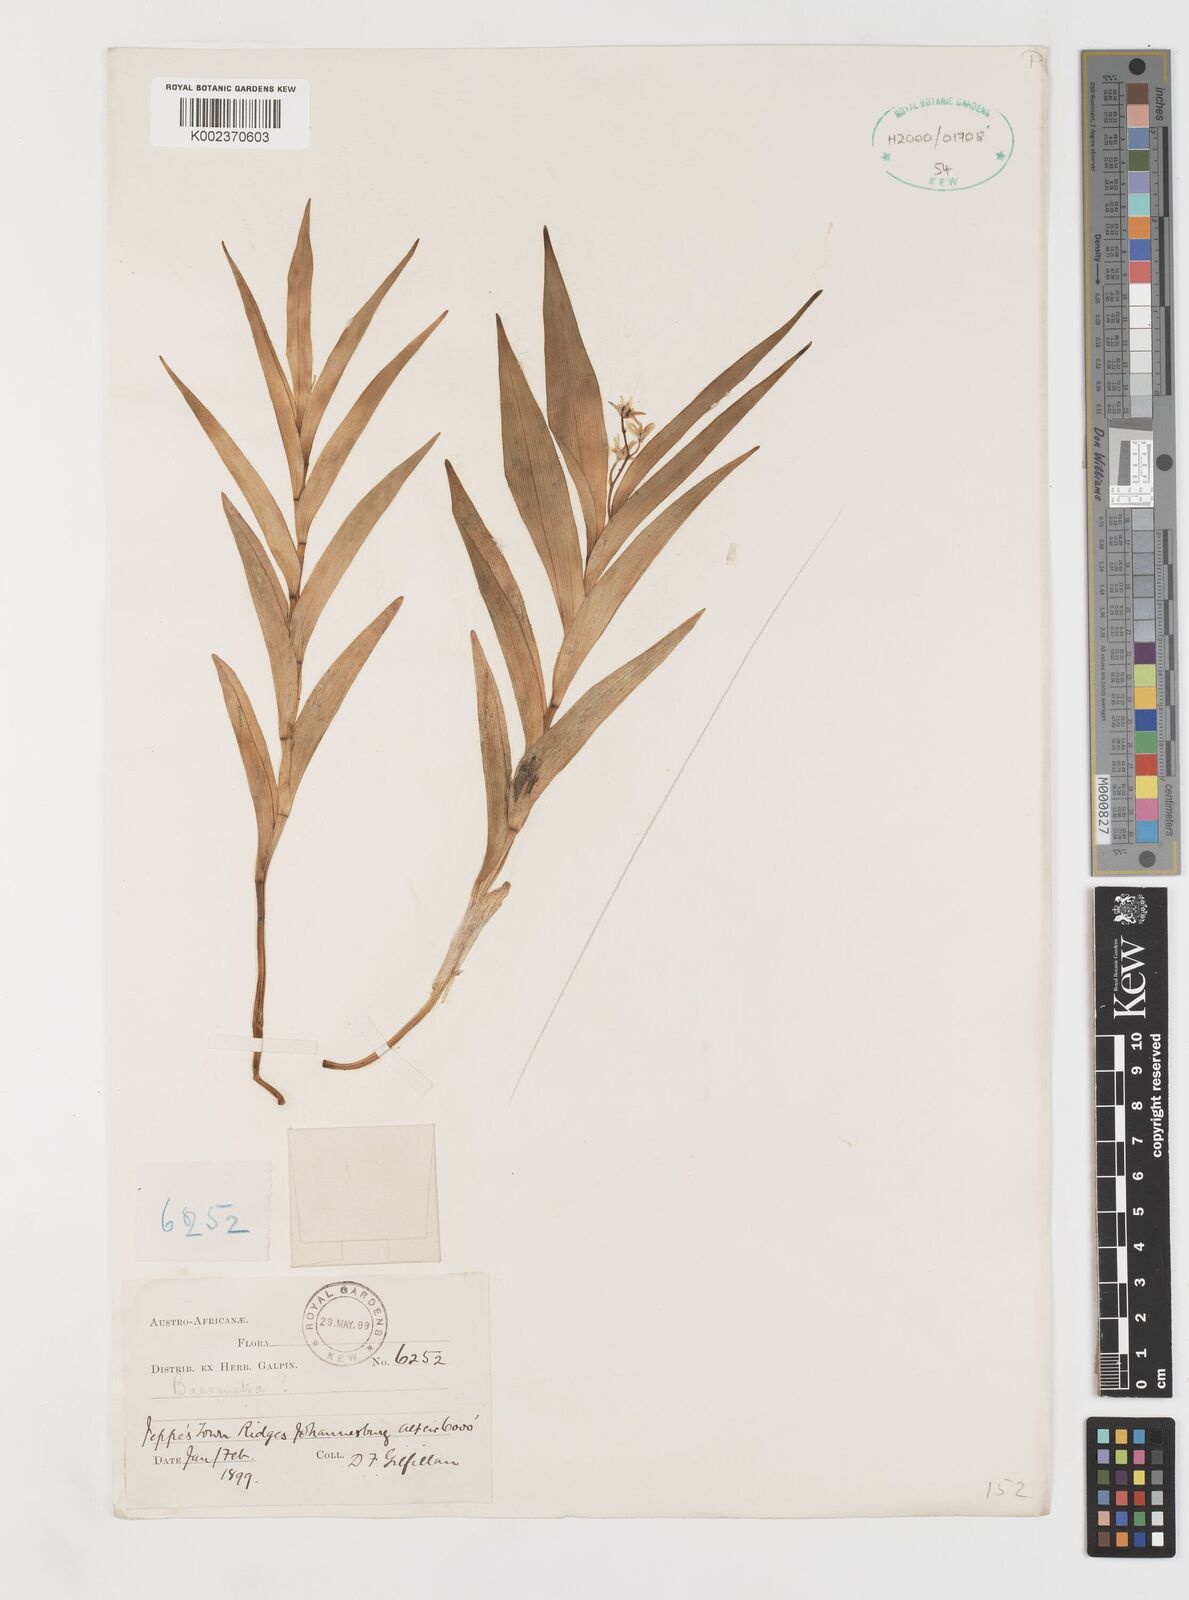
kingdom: Plantae
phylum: Tracheophyta
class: Liliopsida
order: Liliales
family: Colchicaceae
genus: Baeometra
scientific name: Baeometra uniflora
